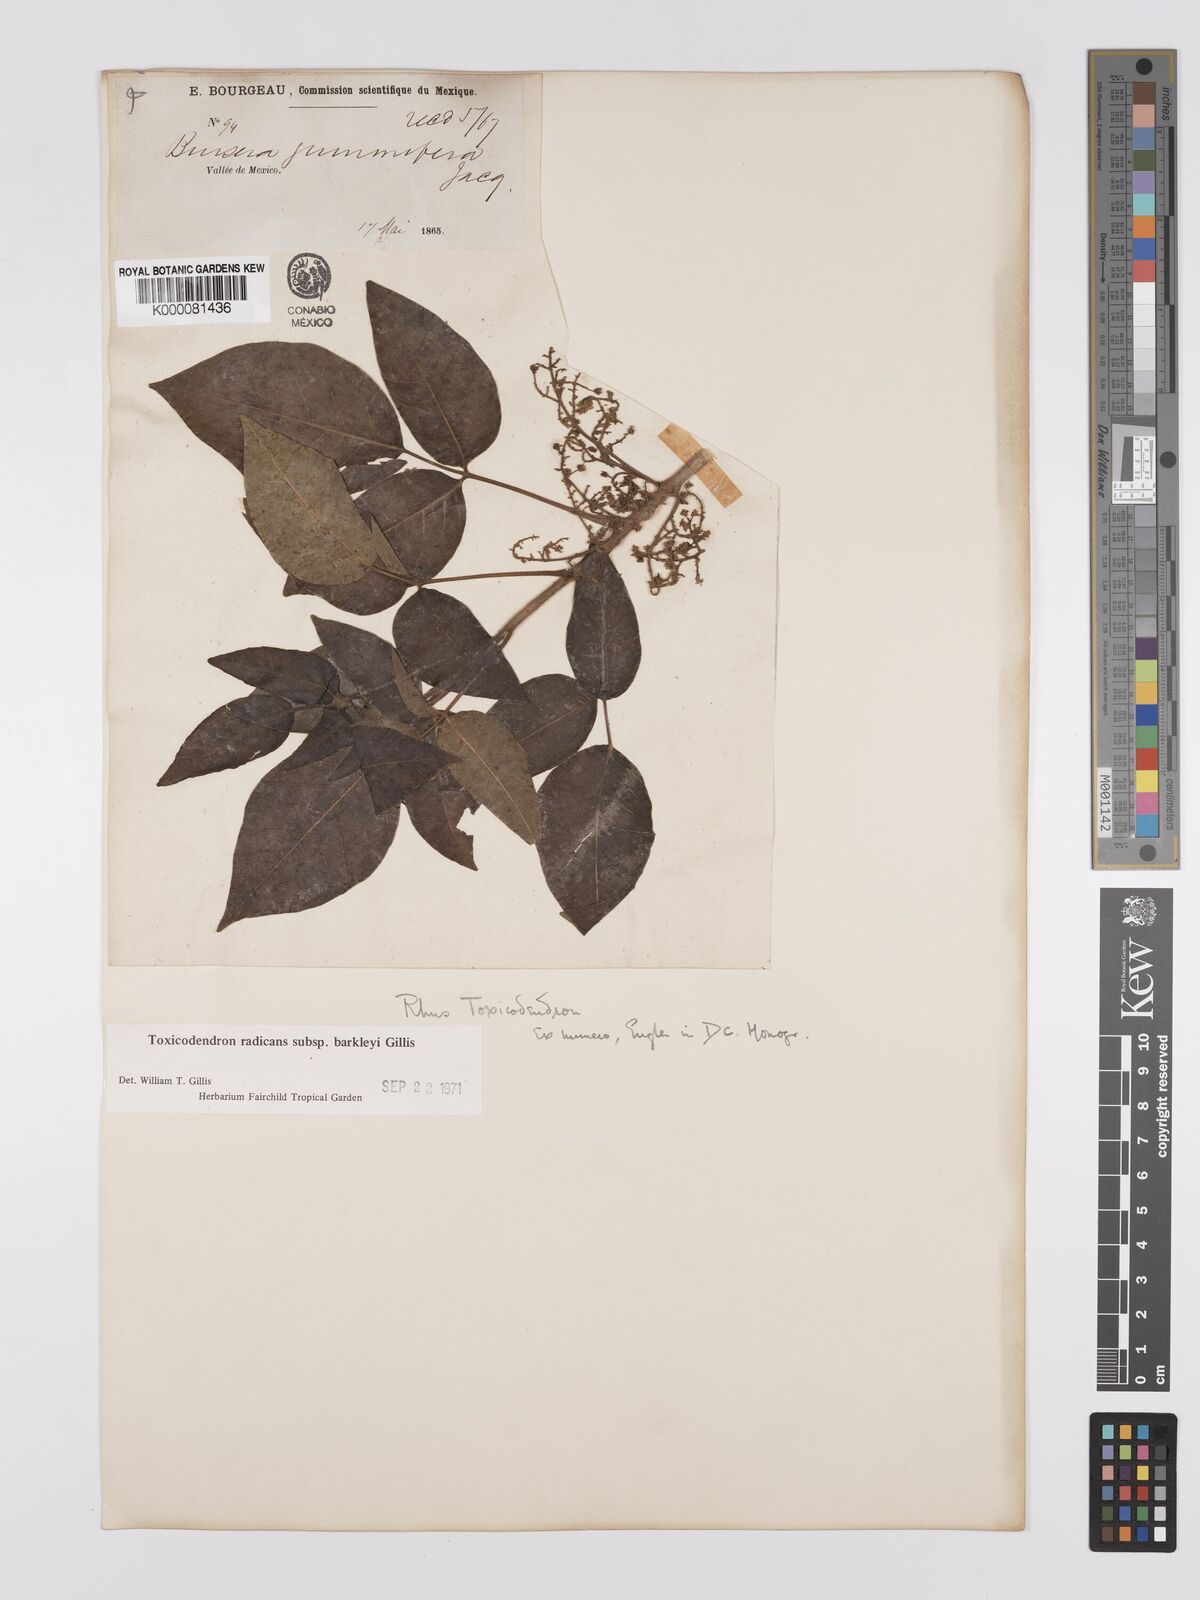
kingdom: Plantae
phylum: Tracheophyta
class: Magnoliopsida
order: Sapindales
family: Anacardiaceae
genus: Toxicodendron
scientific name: Toxicodendron radicans
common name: Poison ivy
